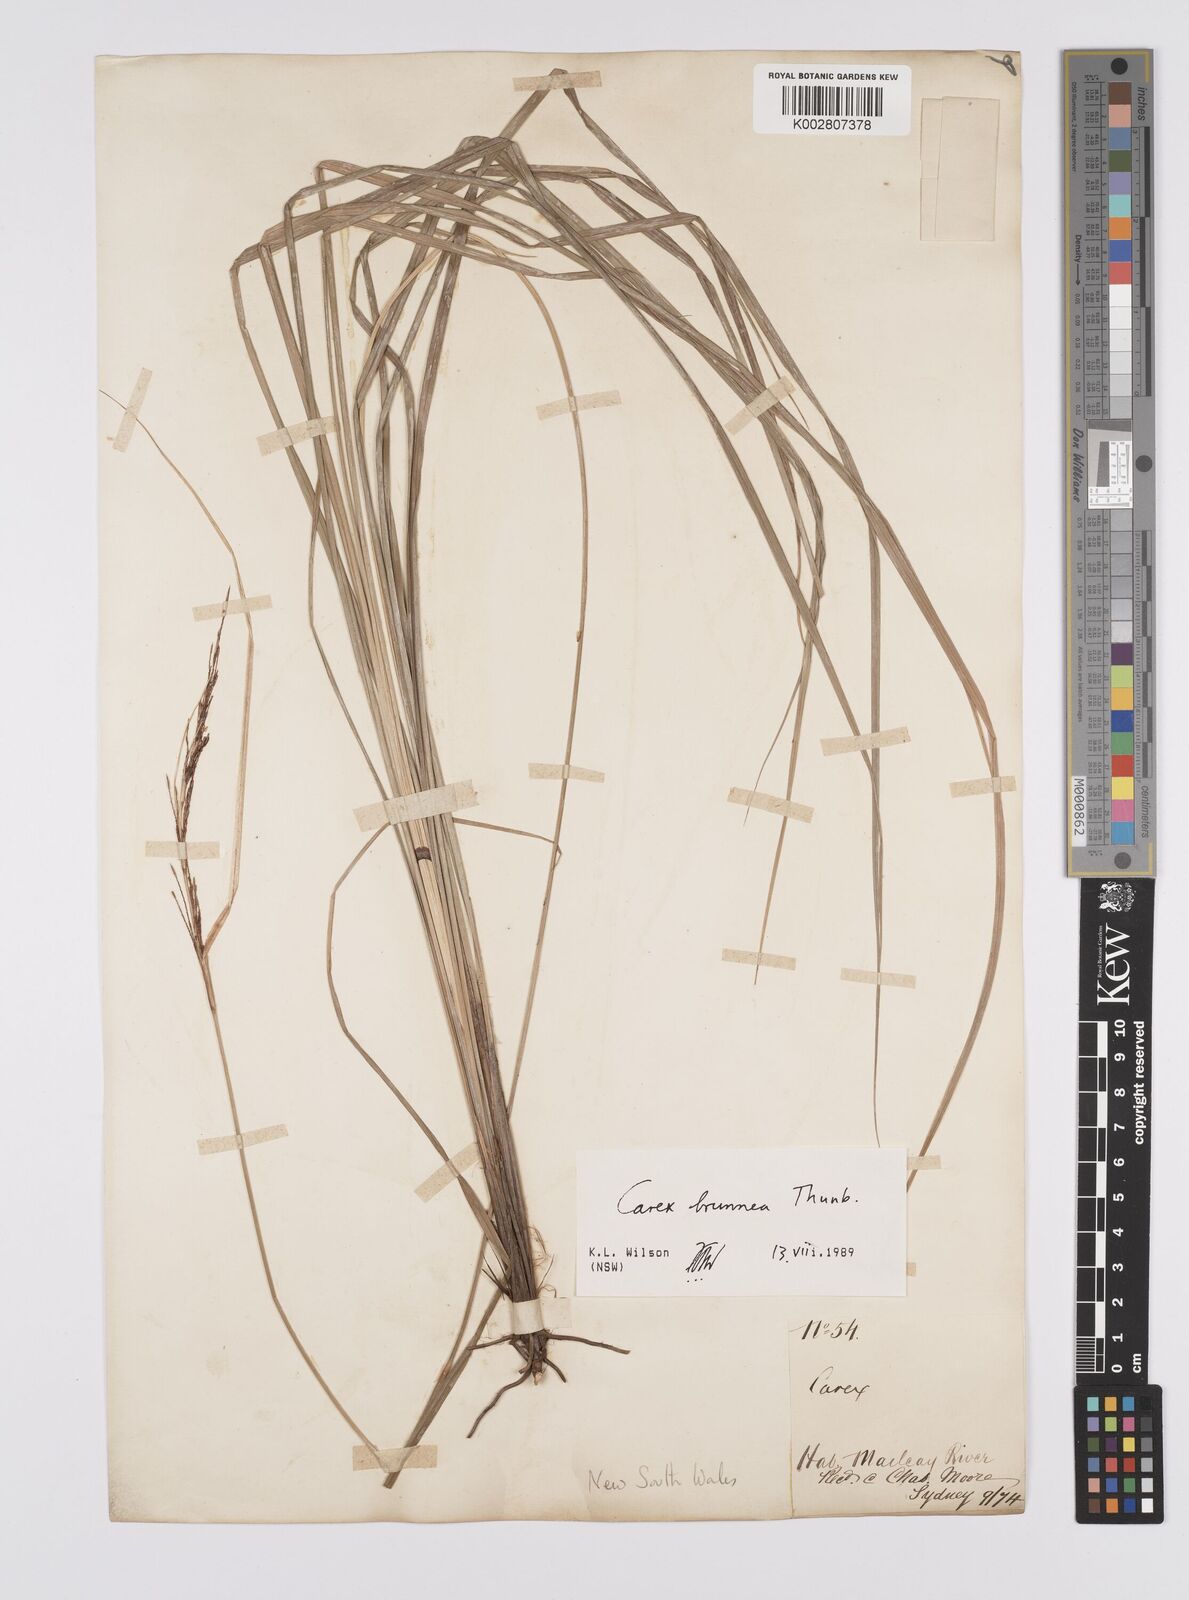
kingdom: Plantae
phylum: Tracheophyta
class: Liliopsida
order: Poales
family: Cyperaceae
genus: Carex
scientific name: Carex brunnea
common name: Greater brown sedge
